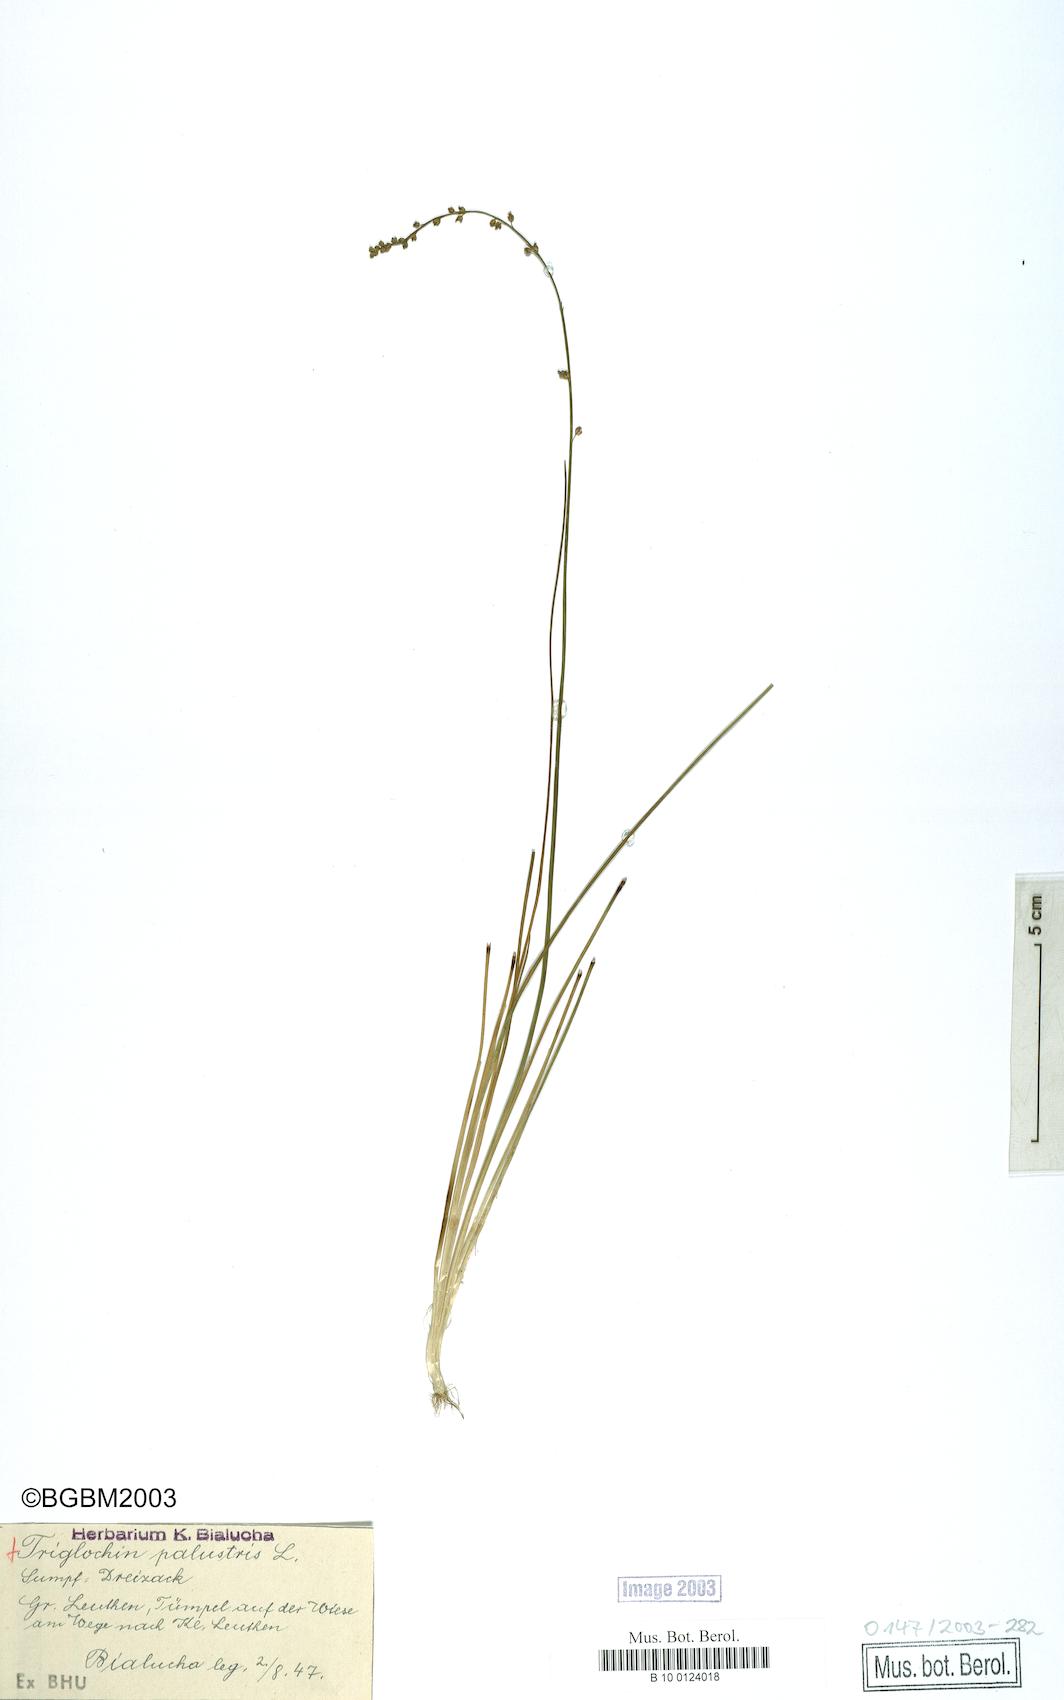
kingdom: Plantae
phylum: Tracheophyta
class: Liliopsida
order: Alismatales
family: Juncaginaceae
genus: Triglochin
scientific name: Triglochin palustris
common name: Marsh arrowgrass
